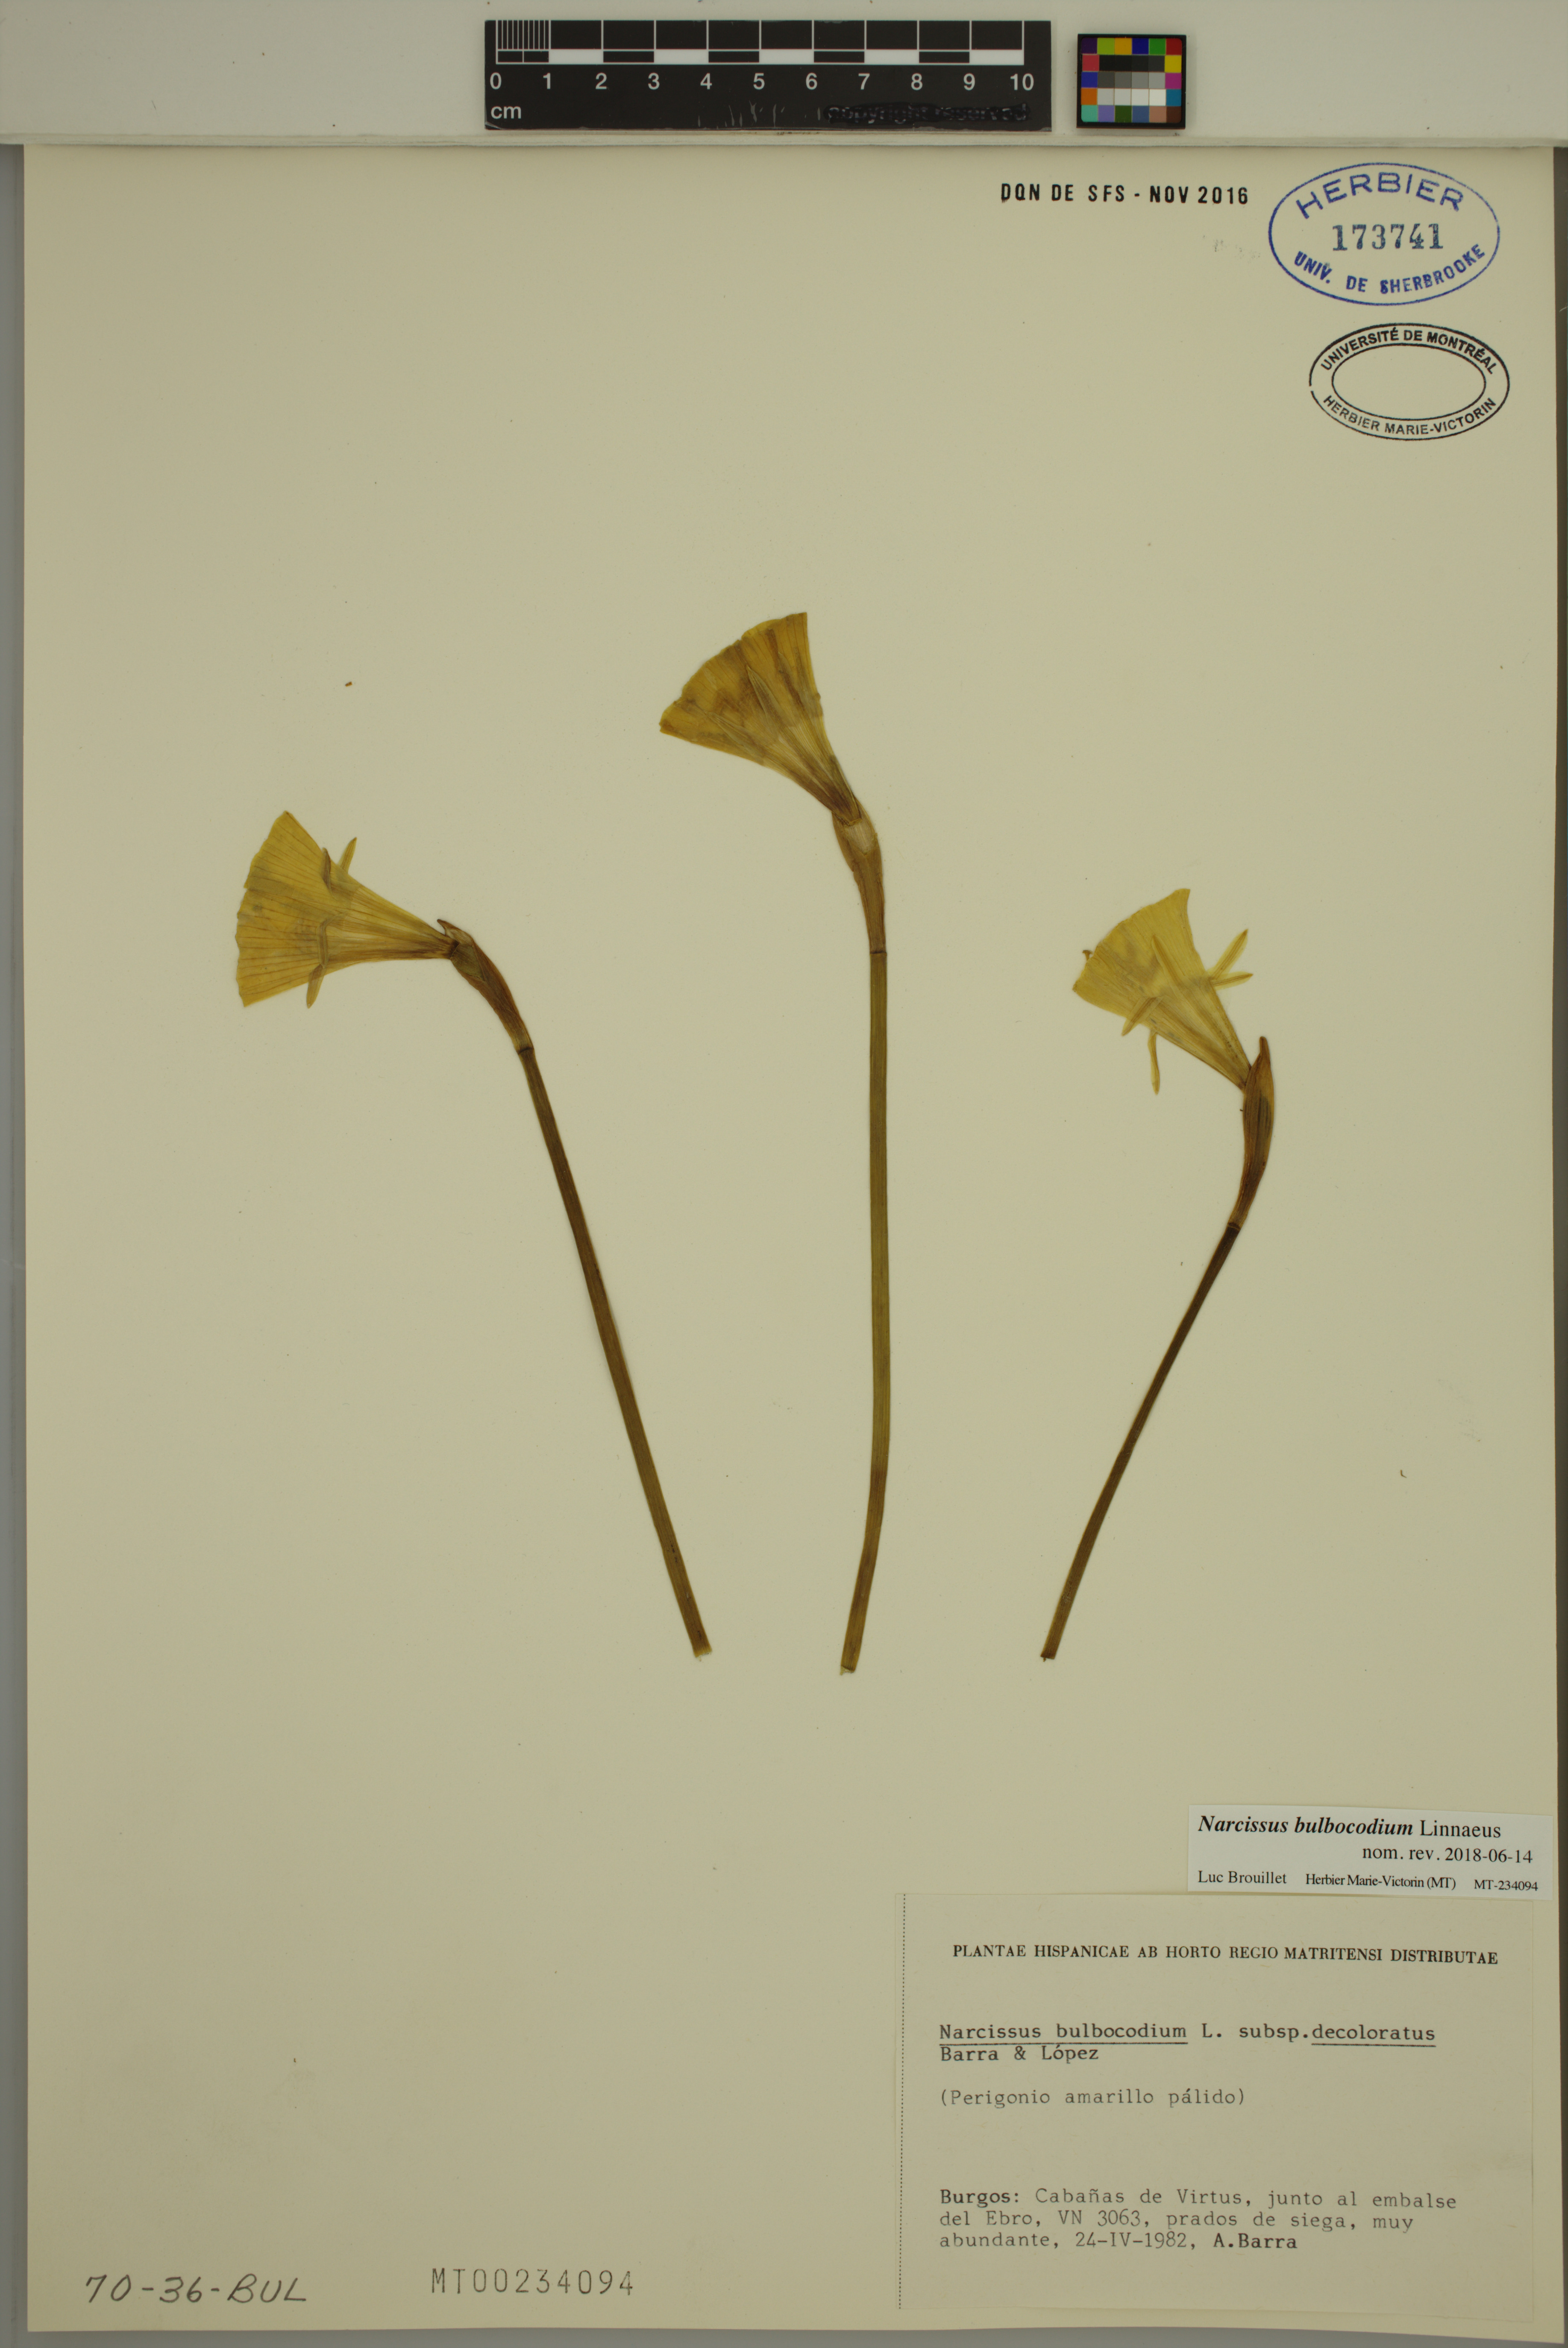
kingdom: Plantae
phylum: Tracheophyta
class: Liliopsida
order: Asparagales
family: Amaryllidaceae
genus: Narcissus
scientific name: Narcissus bulbocodium
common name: Hoop-petticoat daffodil
